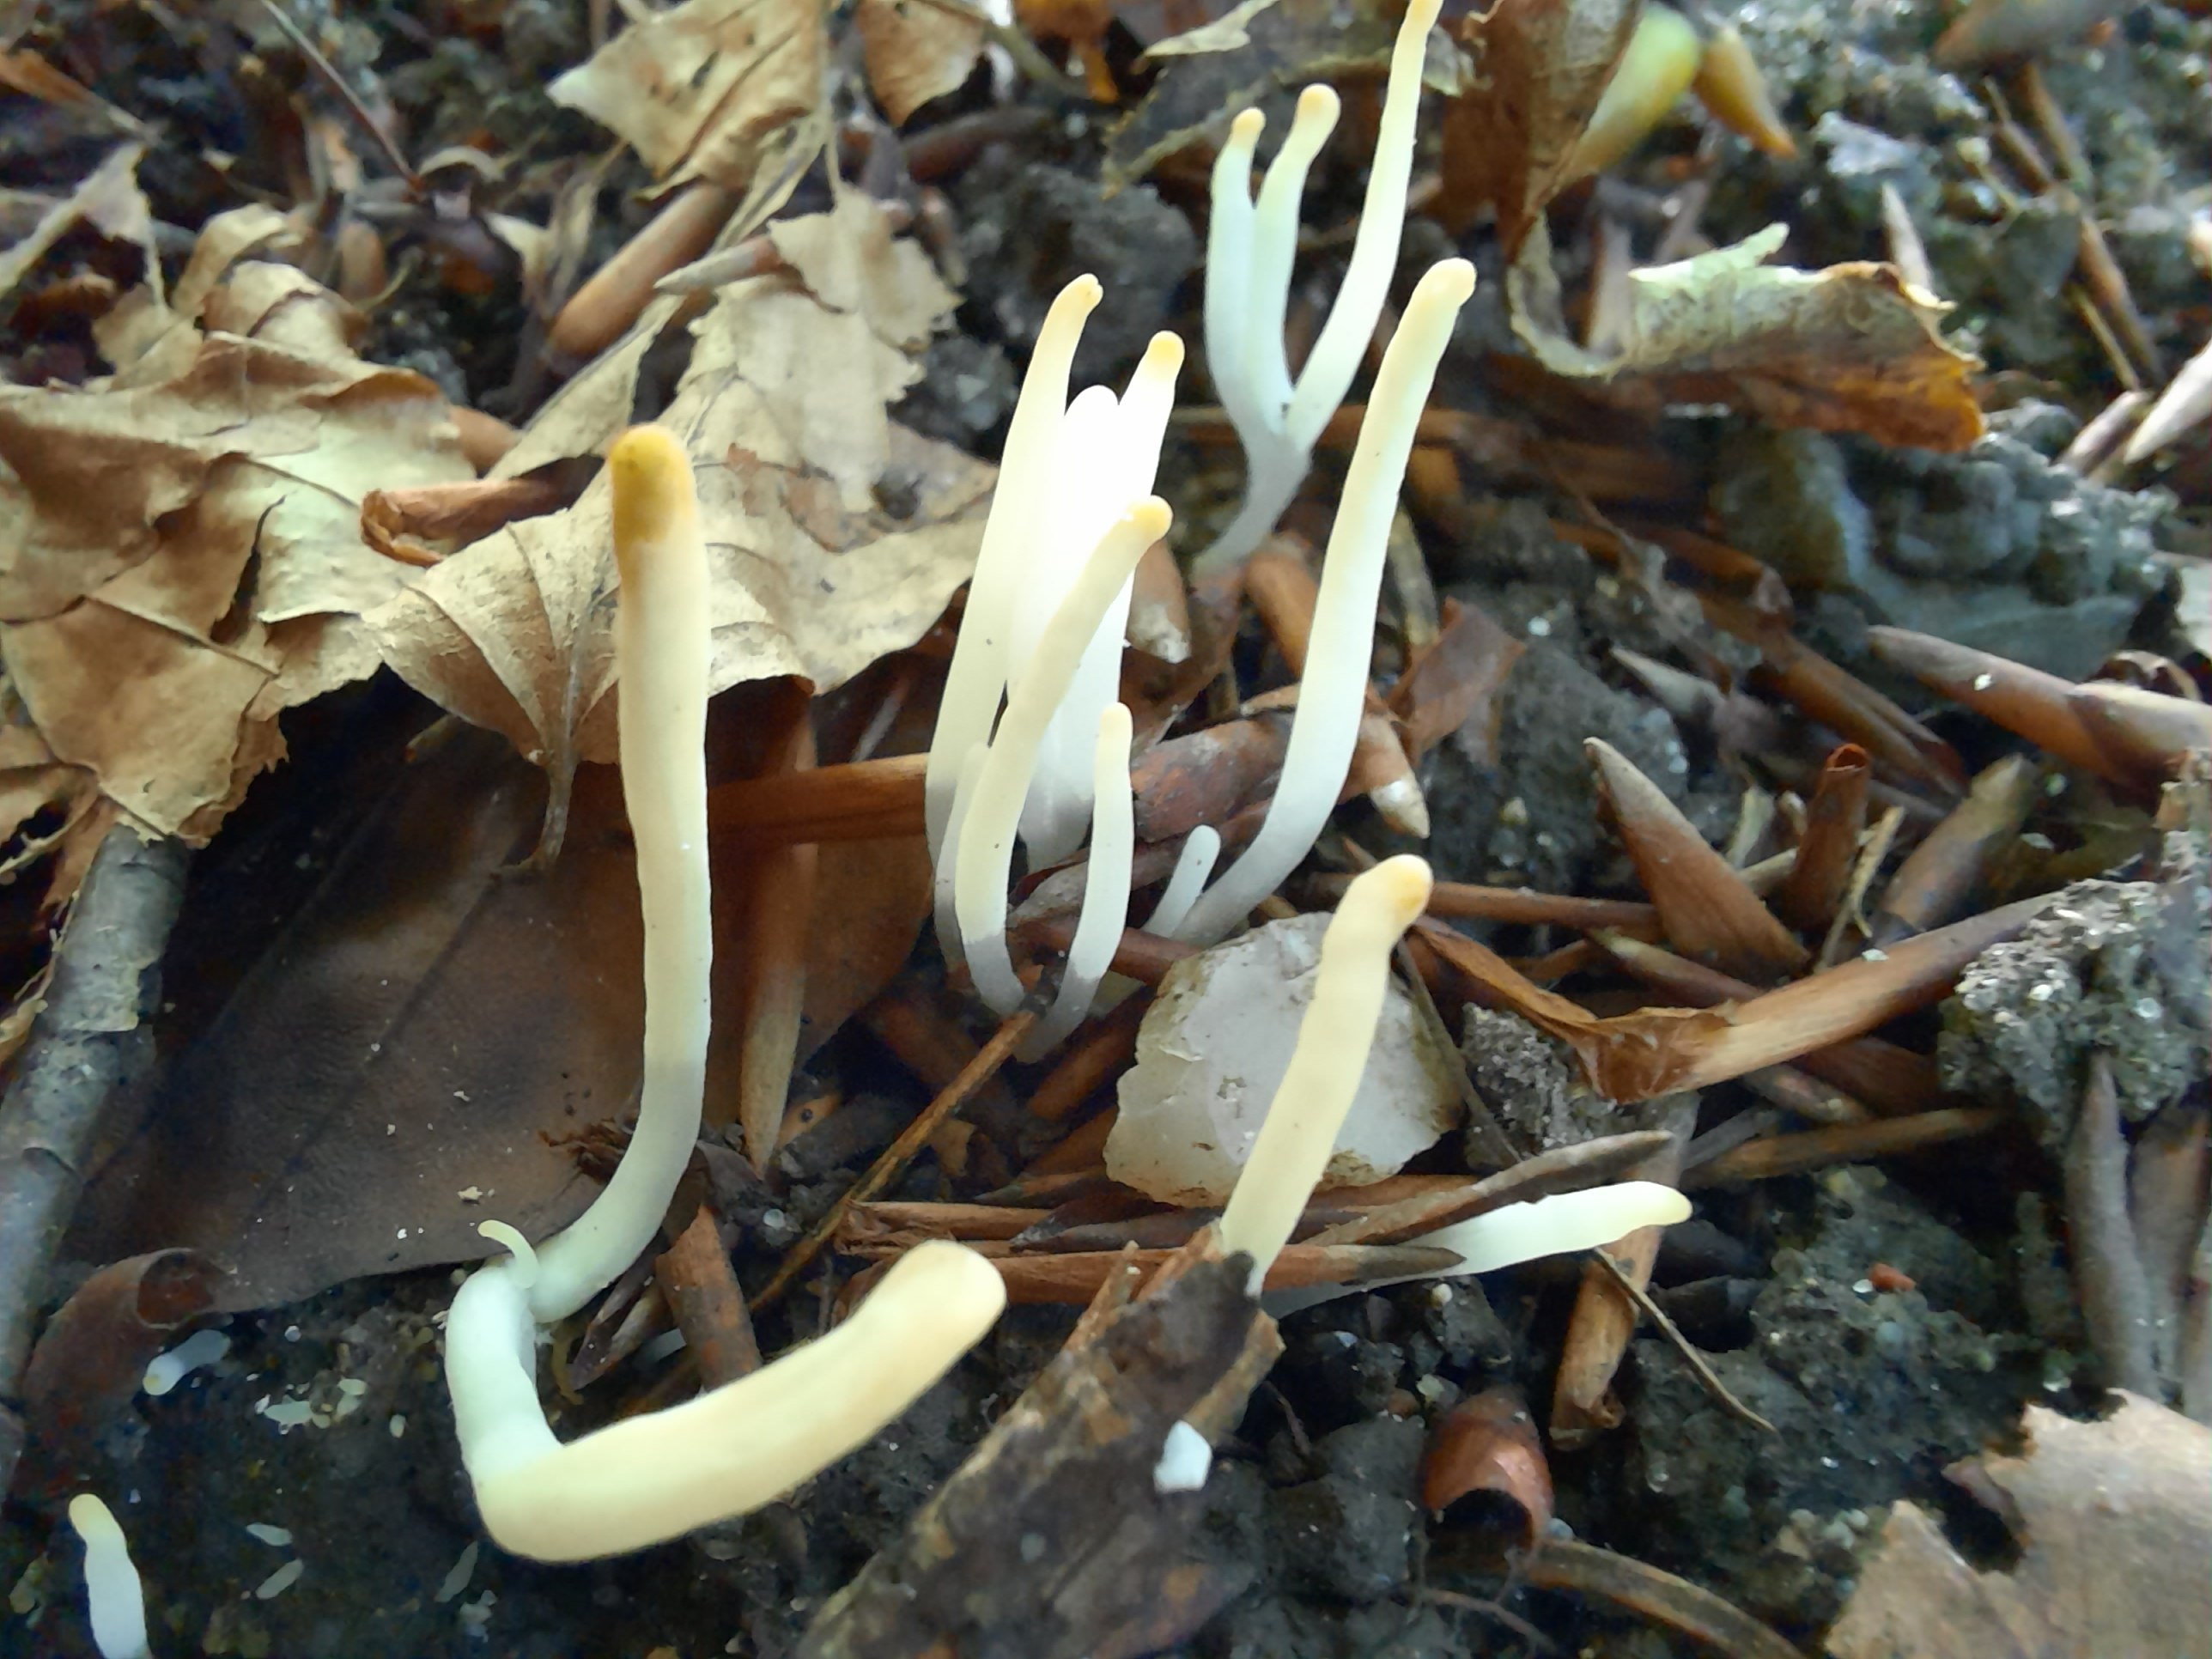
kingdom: Fungi
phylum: Basidiomycota
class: Agaricomycetes
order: Agaricales
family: Clavariaceae
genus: Clavaria
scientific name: Clavaria falcata
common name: hvid køllesvamp
